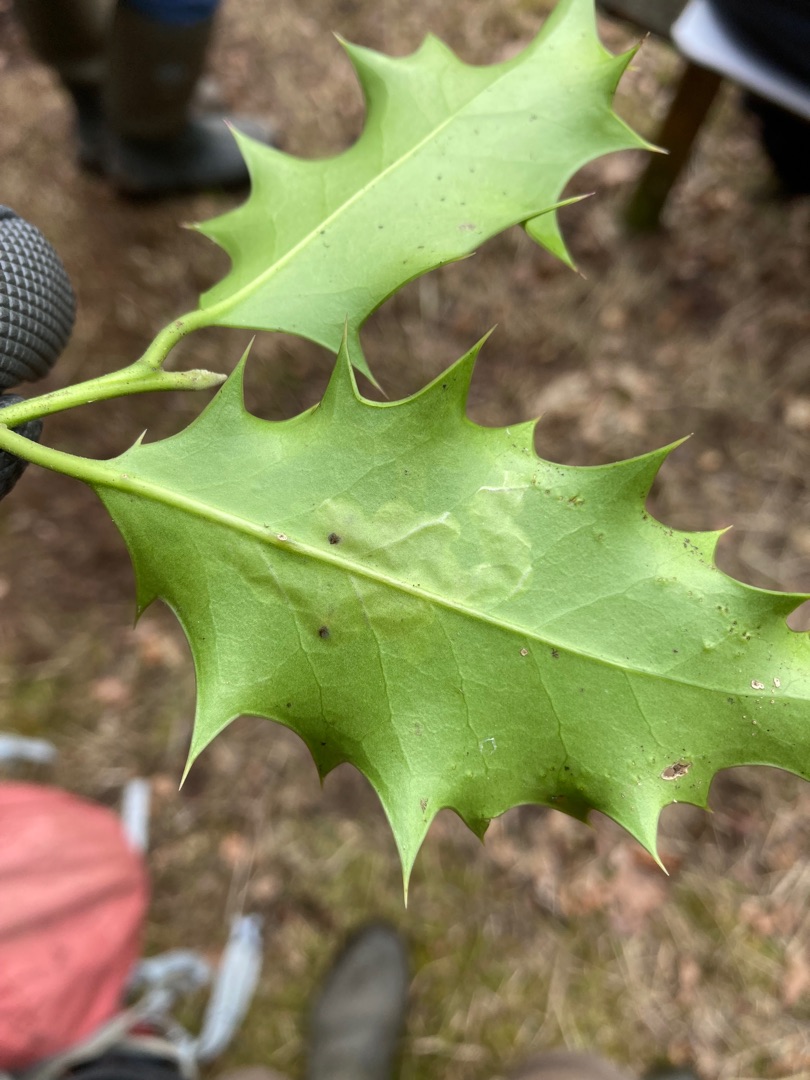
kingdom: Animalia
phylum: Arthropoda
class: Insecta
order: Diptera
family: Agromyzidae
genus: Phytomyza
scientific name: Phytomyza ilicis
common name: Kristtornminérflue
